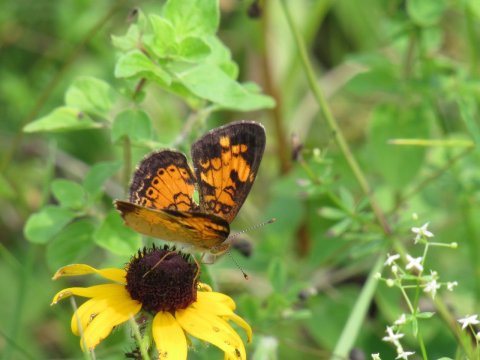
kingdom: Animalia
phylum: Arthropoda
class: Insecta
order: Lepidoptera
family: Nymphalidae
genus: Phyciodes
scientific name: Phyciodes tharos
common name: Pearl Crescent
